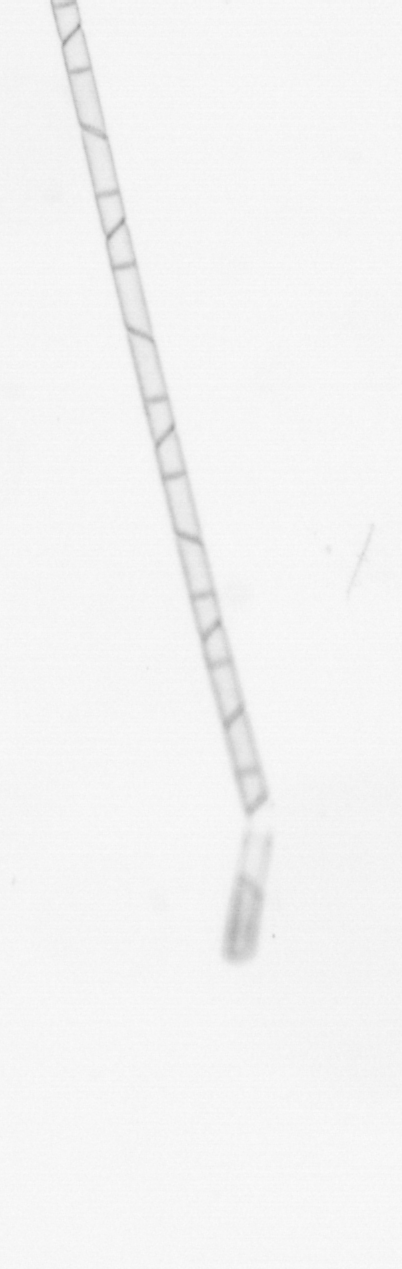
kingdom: Chromista
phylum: Ochrophyta
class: Bacillariophyceae
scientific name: Bacillariophyceae
